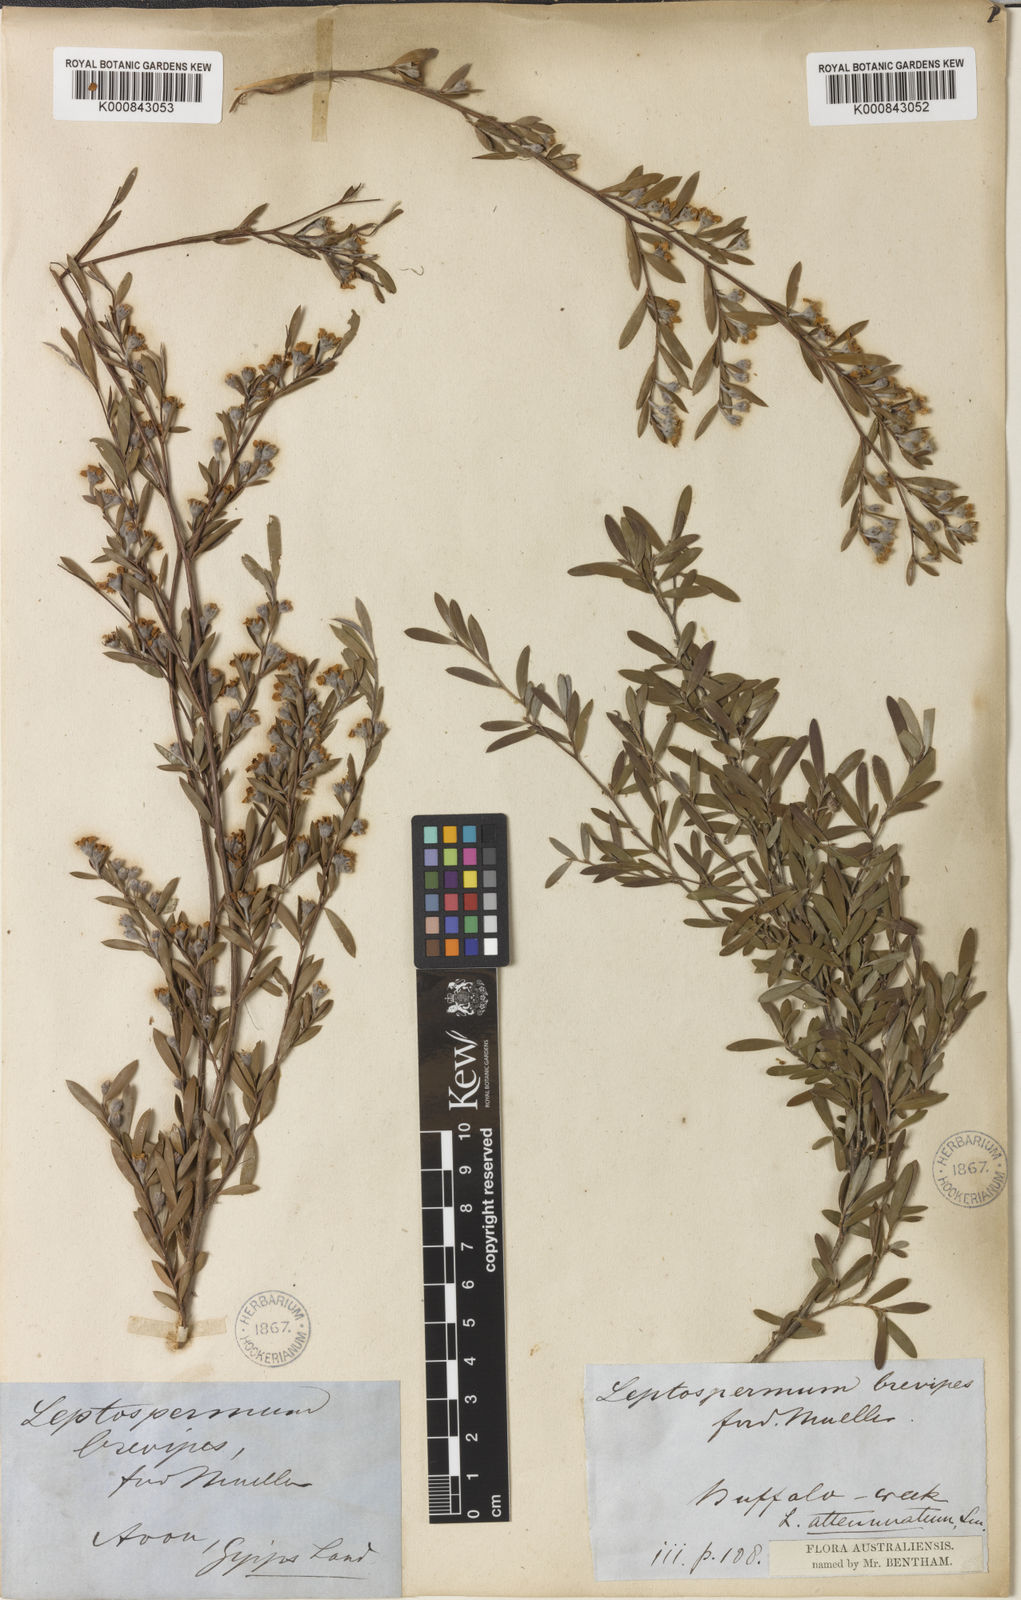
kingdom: Plantae
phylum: Tracheophyta
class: Magnoliopsida
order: Myrtales
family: Myrtaceae
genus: Leptospermum
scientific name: Leptospermum brevipes
